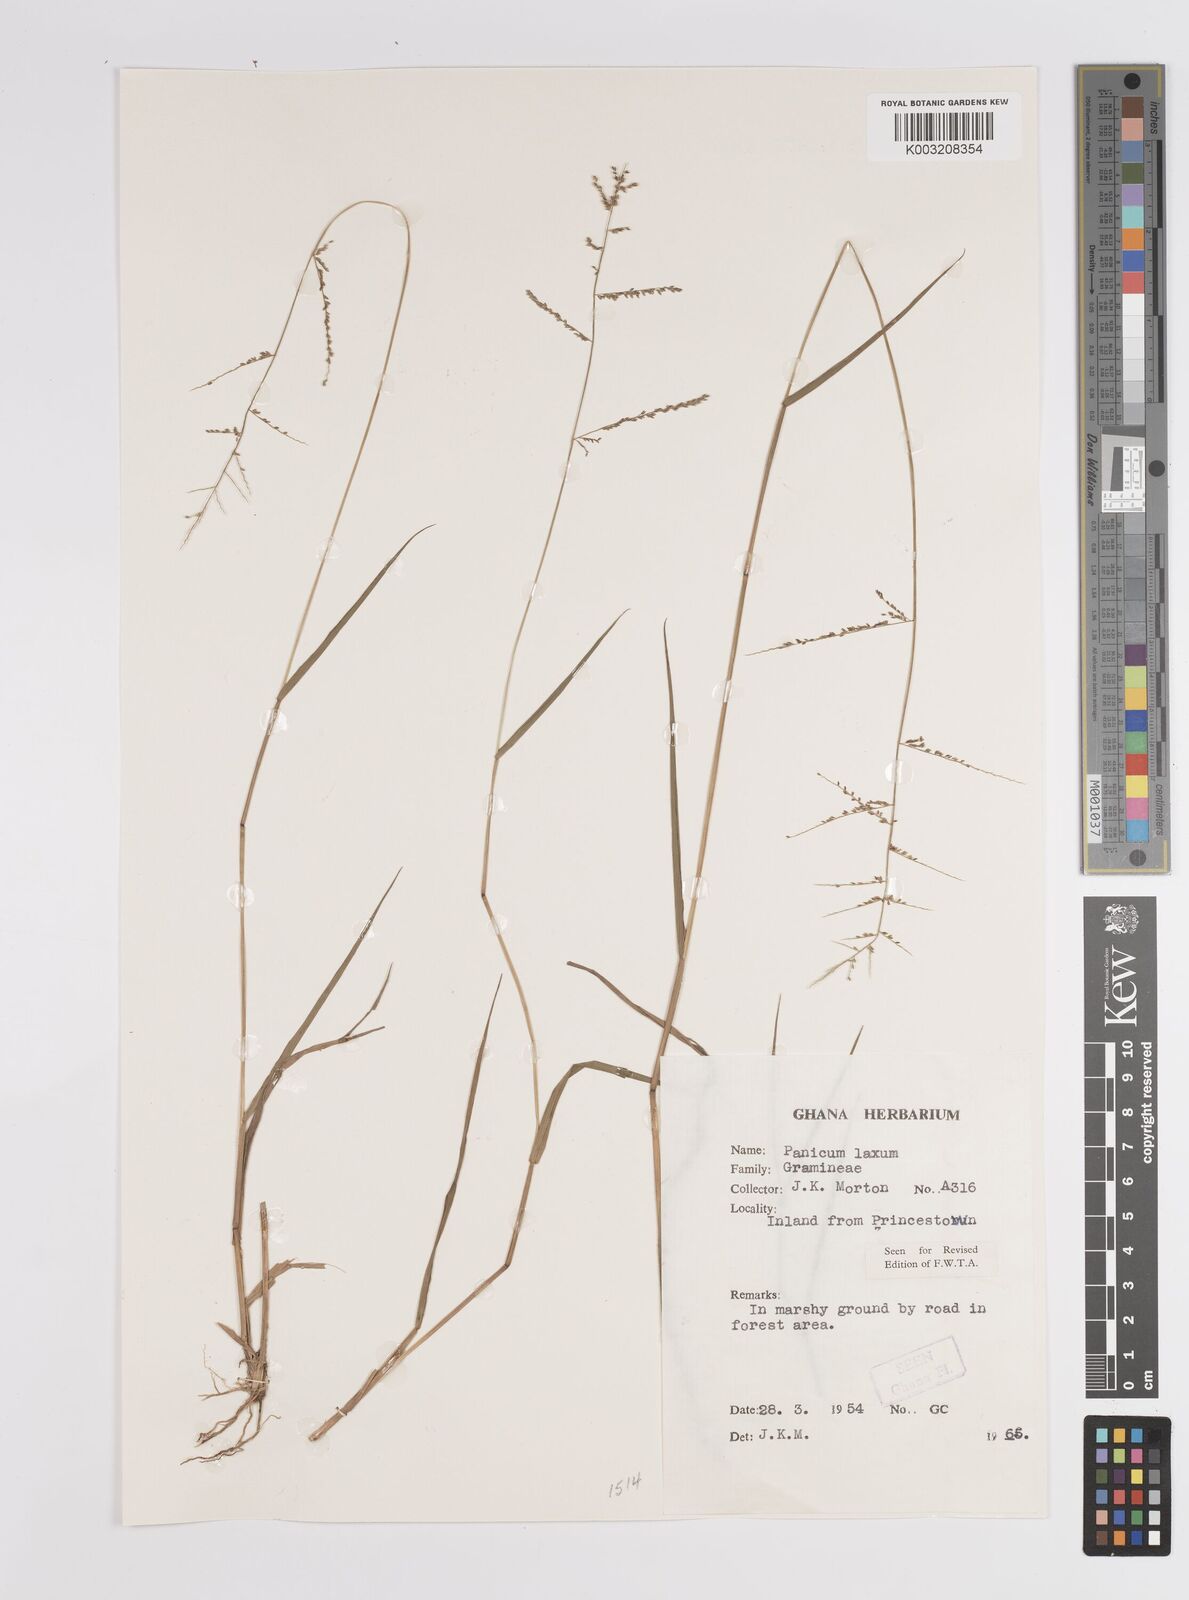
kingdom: Plantae
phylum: Tracheophyta
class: Liliopsida
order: Poales
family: Poaceae
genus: Steinchisma
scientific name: Steinchisma laxum
